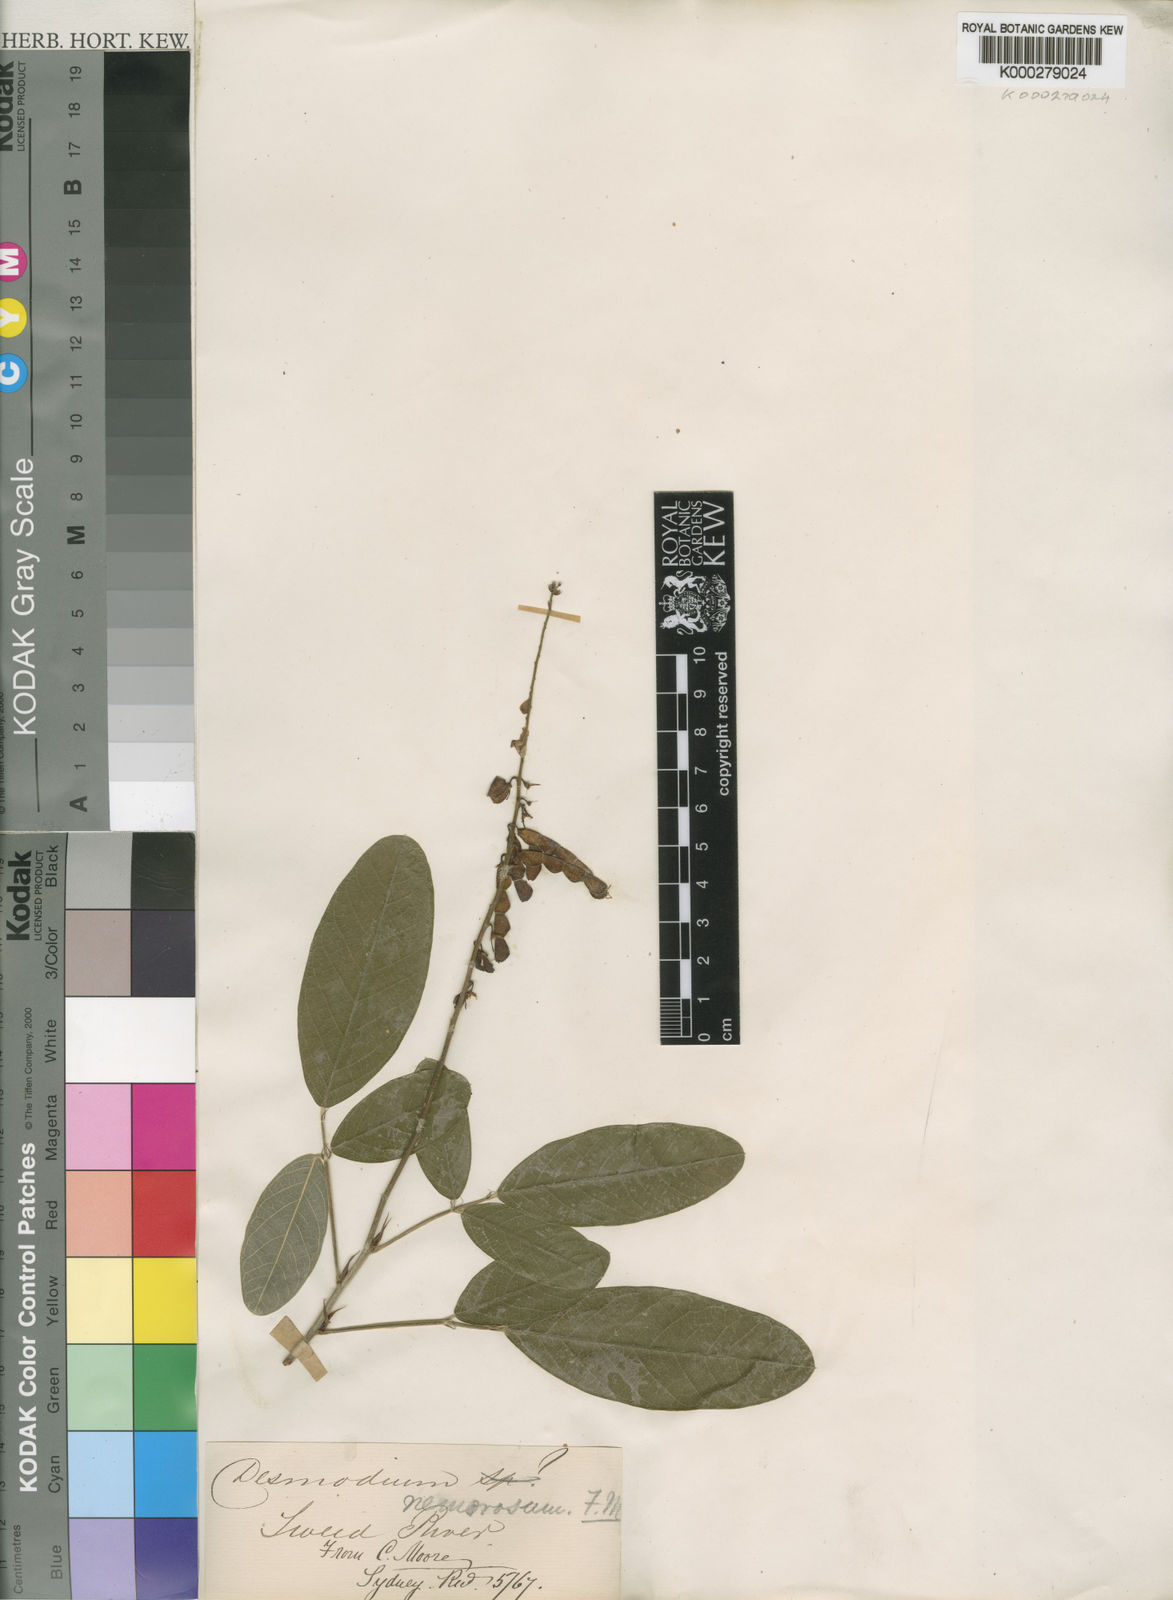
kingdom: Plantae
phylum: Tracheophyta
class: Magnoliopsida
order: Fabales
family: Fabaceae
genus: Desmodium
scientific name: Desmodium
